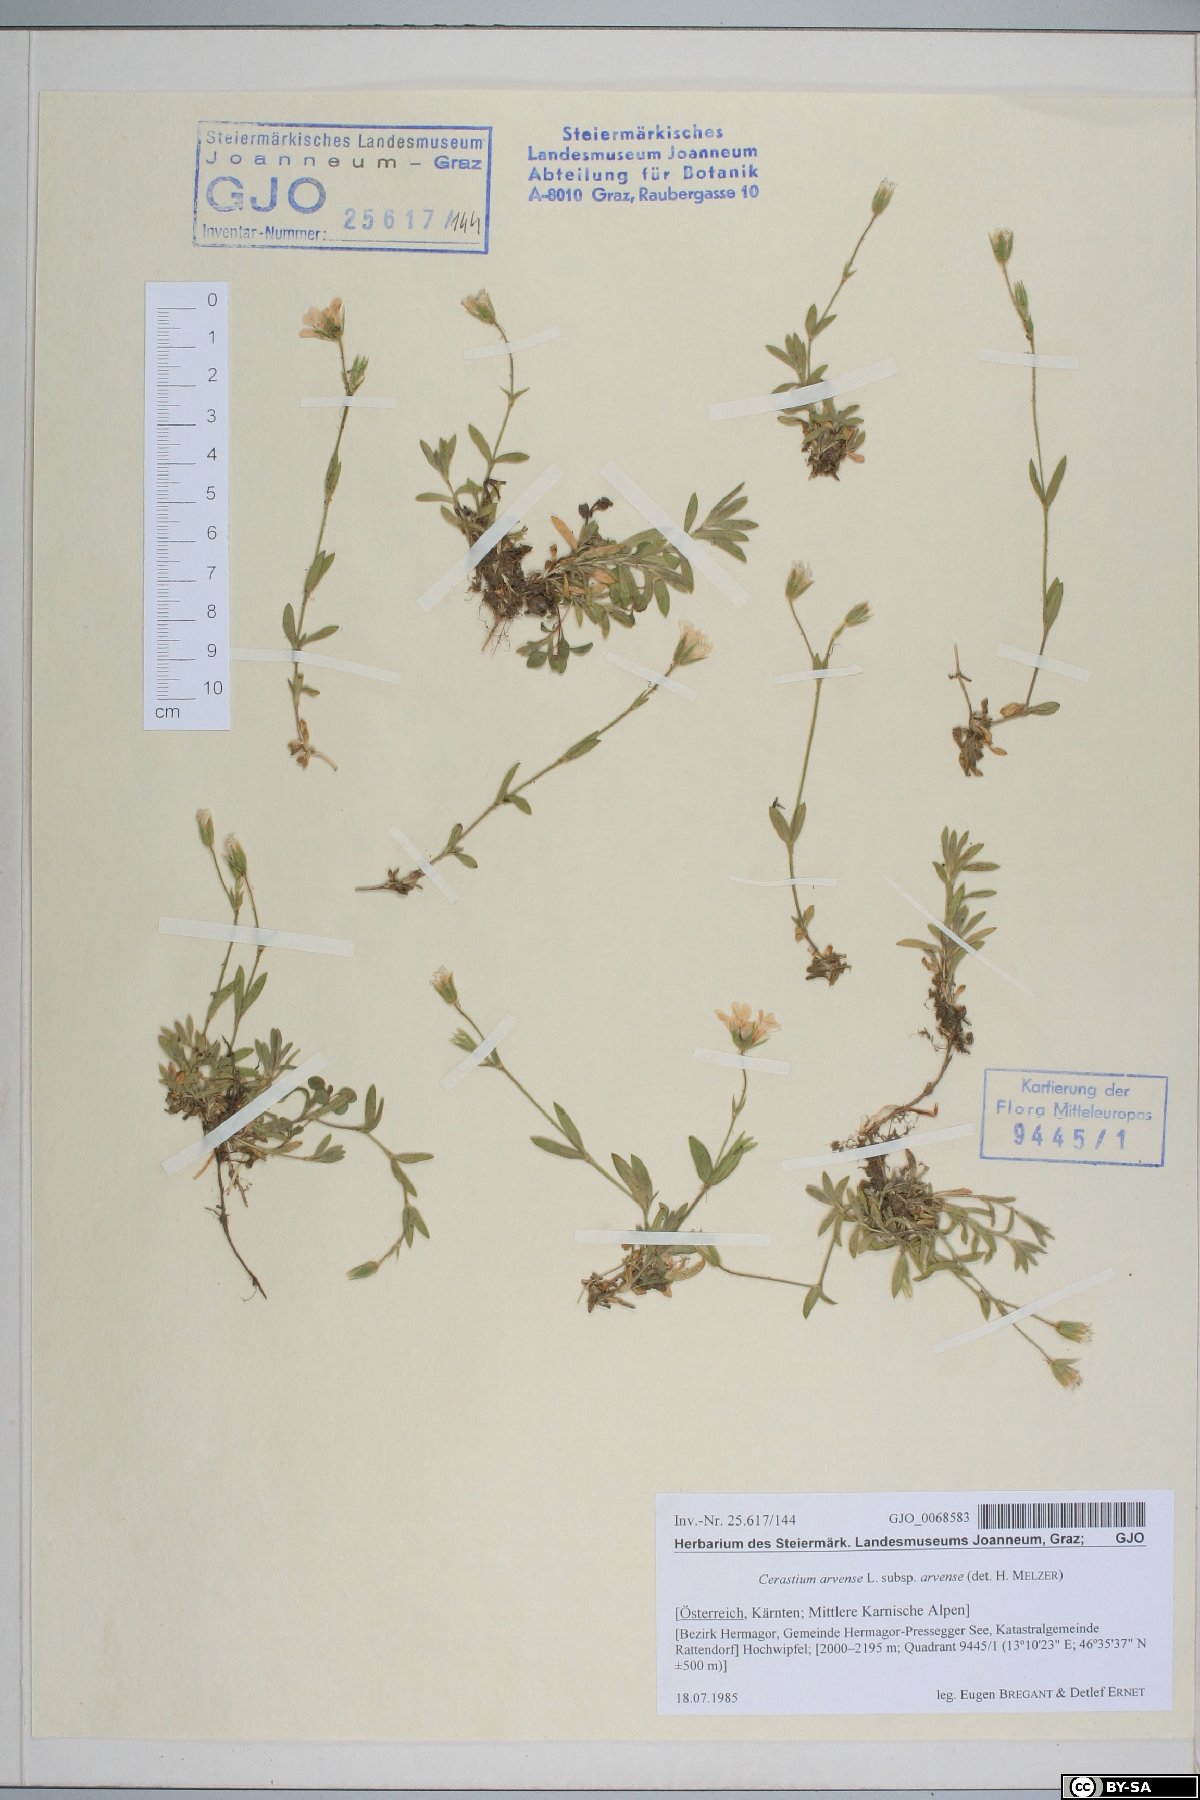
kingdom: Plantae
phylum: Tracheophyta
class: Magnoliopsida
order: Caryophyllales
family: Caryophyllaceae
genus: Cerastium
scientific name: Cerastium arvense
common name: Field mouse-ear
